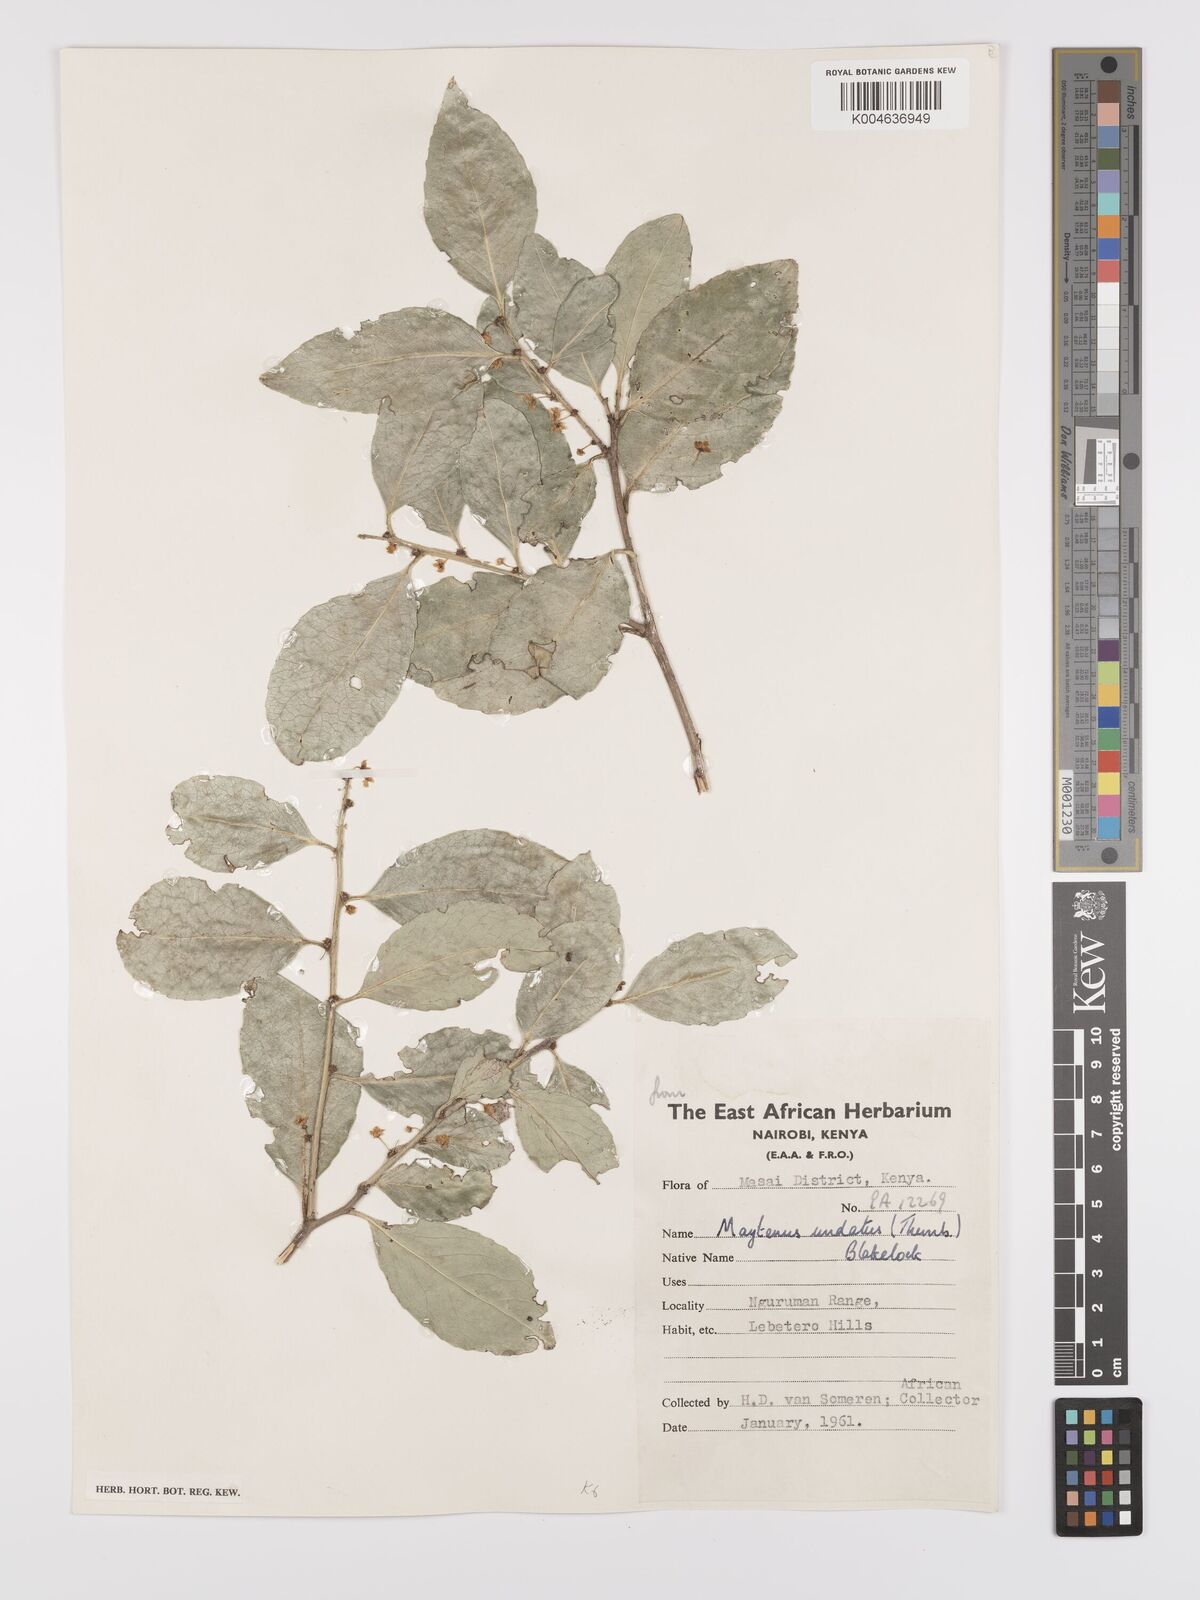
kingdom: Plantae
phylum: Tracheophyta
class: Magnoliopsida
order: Celastrales
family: Celastraceae
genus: Gymnosporia
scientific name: Gymnosporia undata
